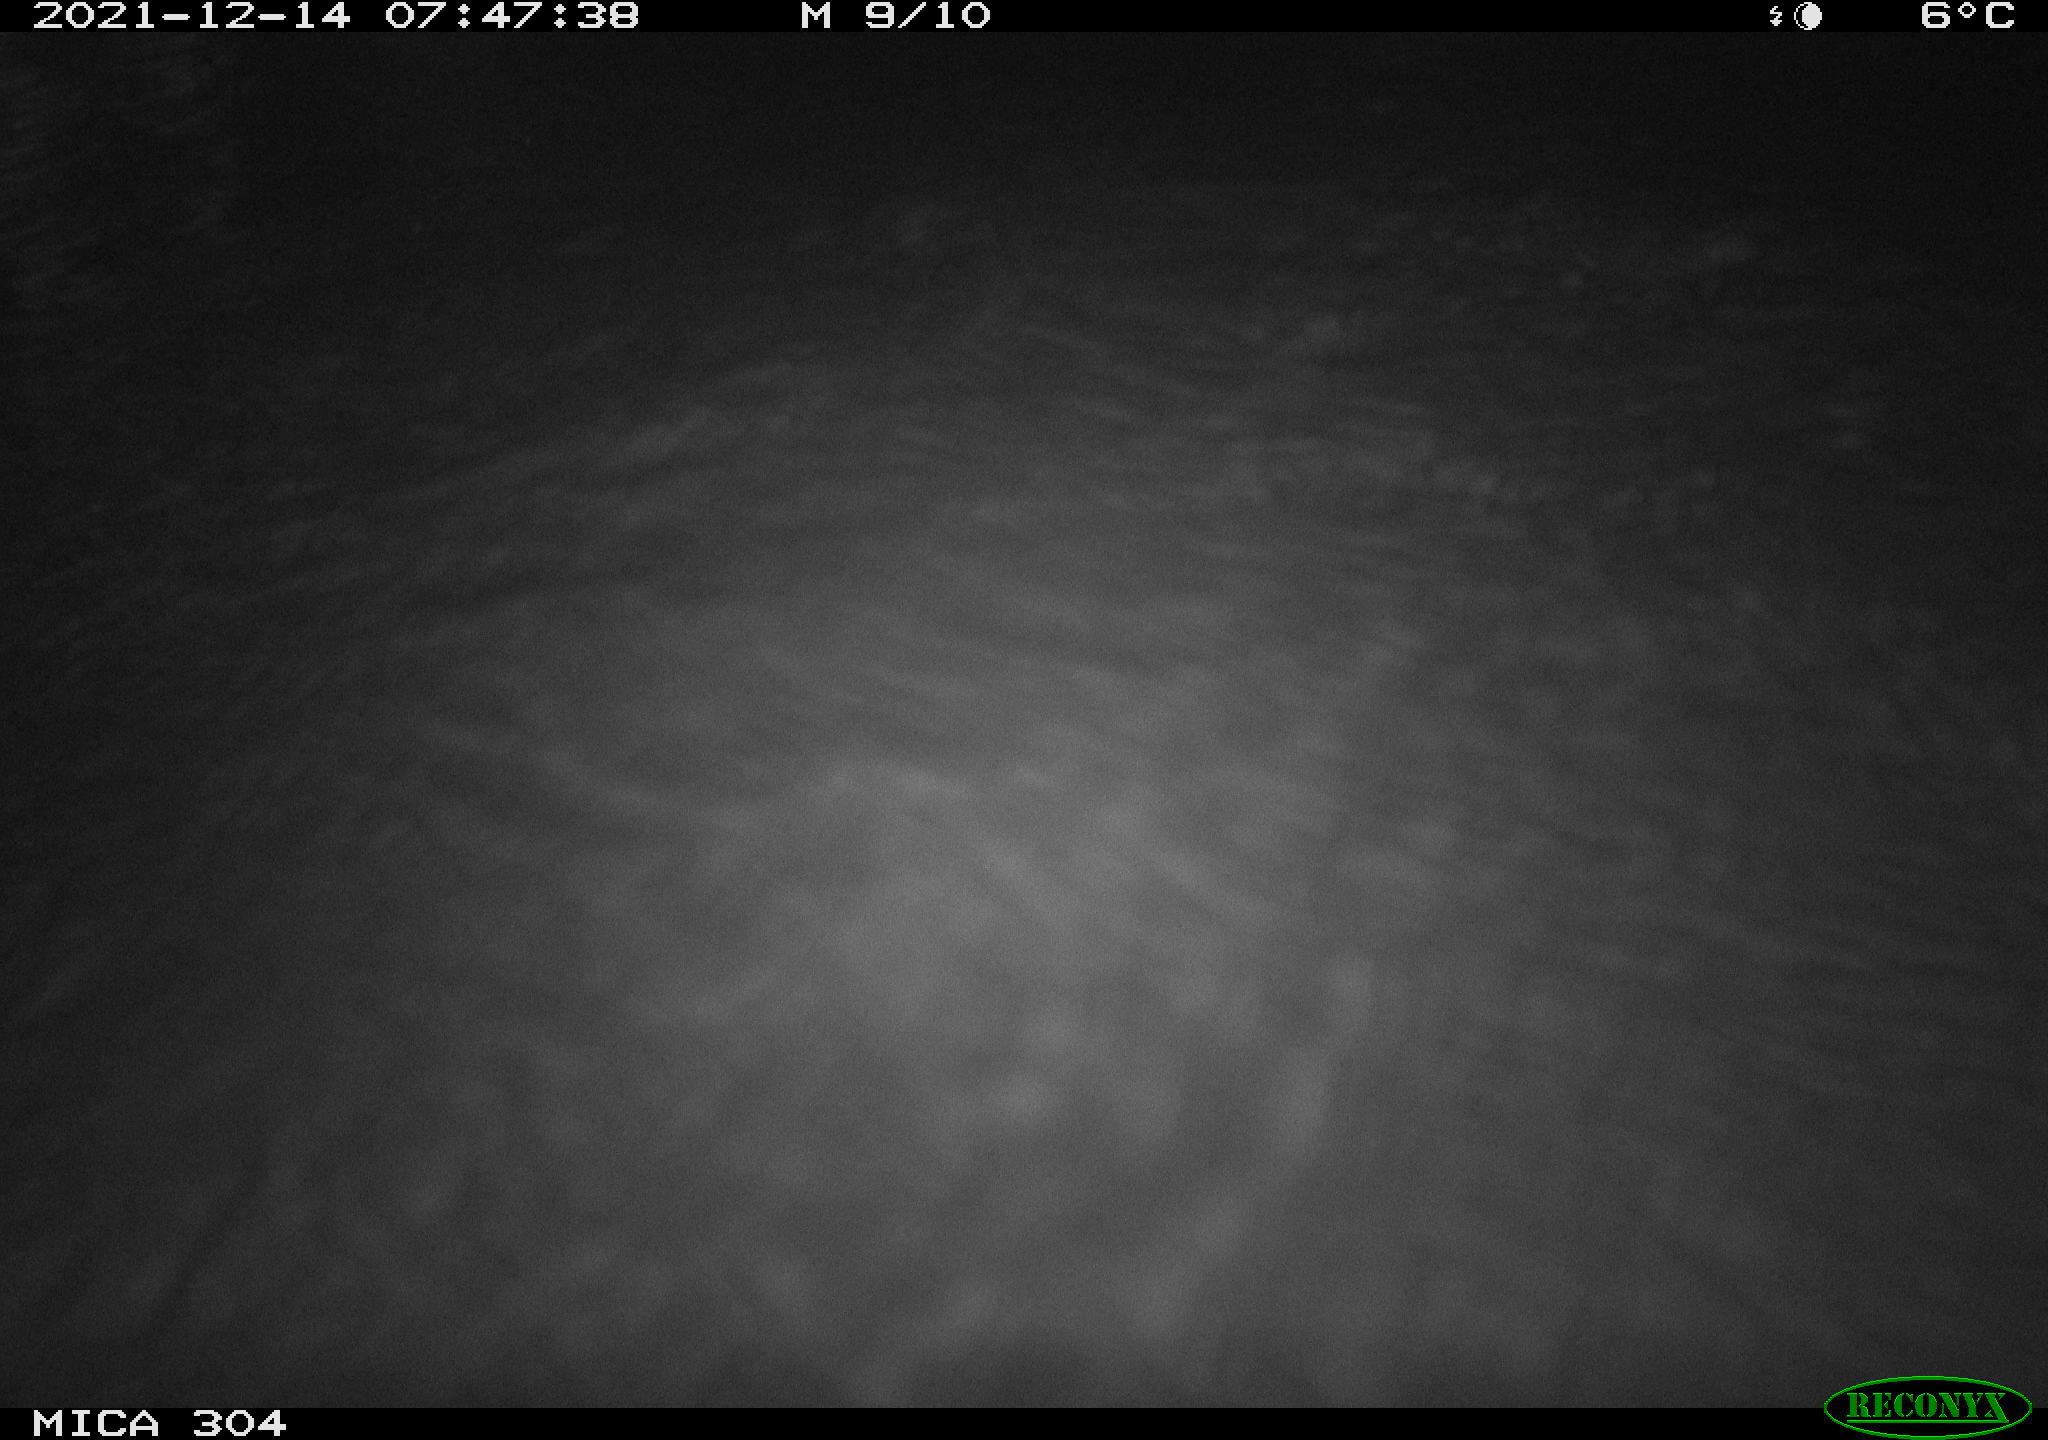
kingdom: Animalia
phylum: Chordata
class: Mammalia
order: Rodentia
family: Cricetidae
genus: Ondatra
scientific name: Ondatra zibethicus
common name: Muskrat
